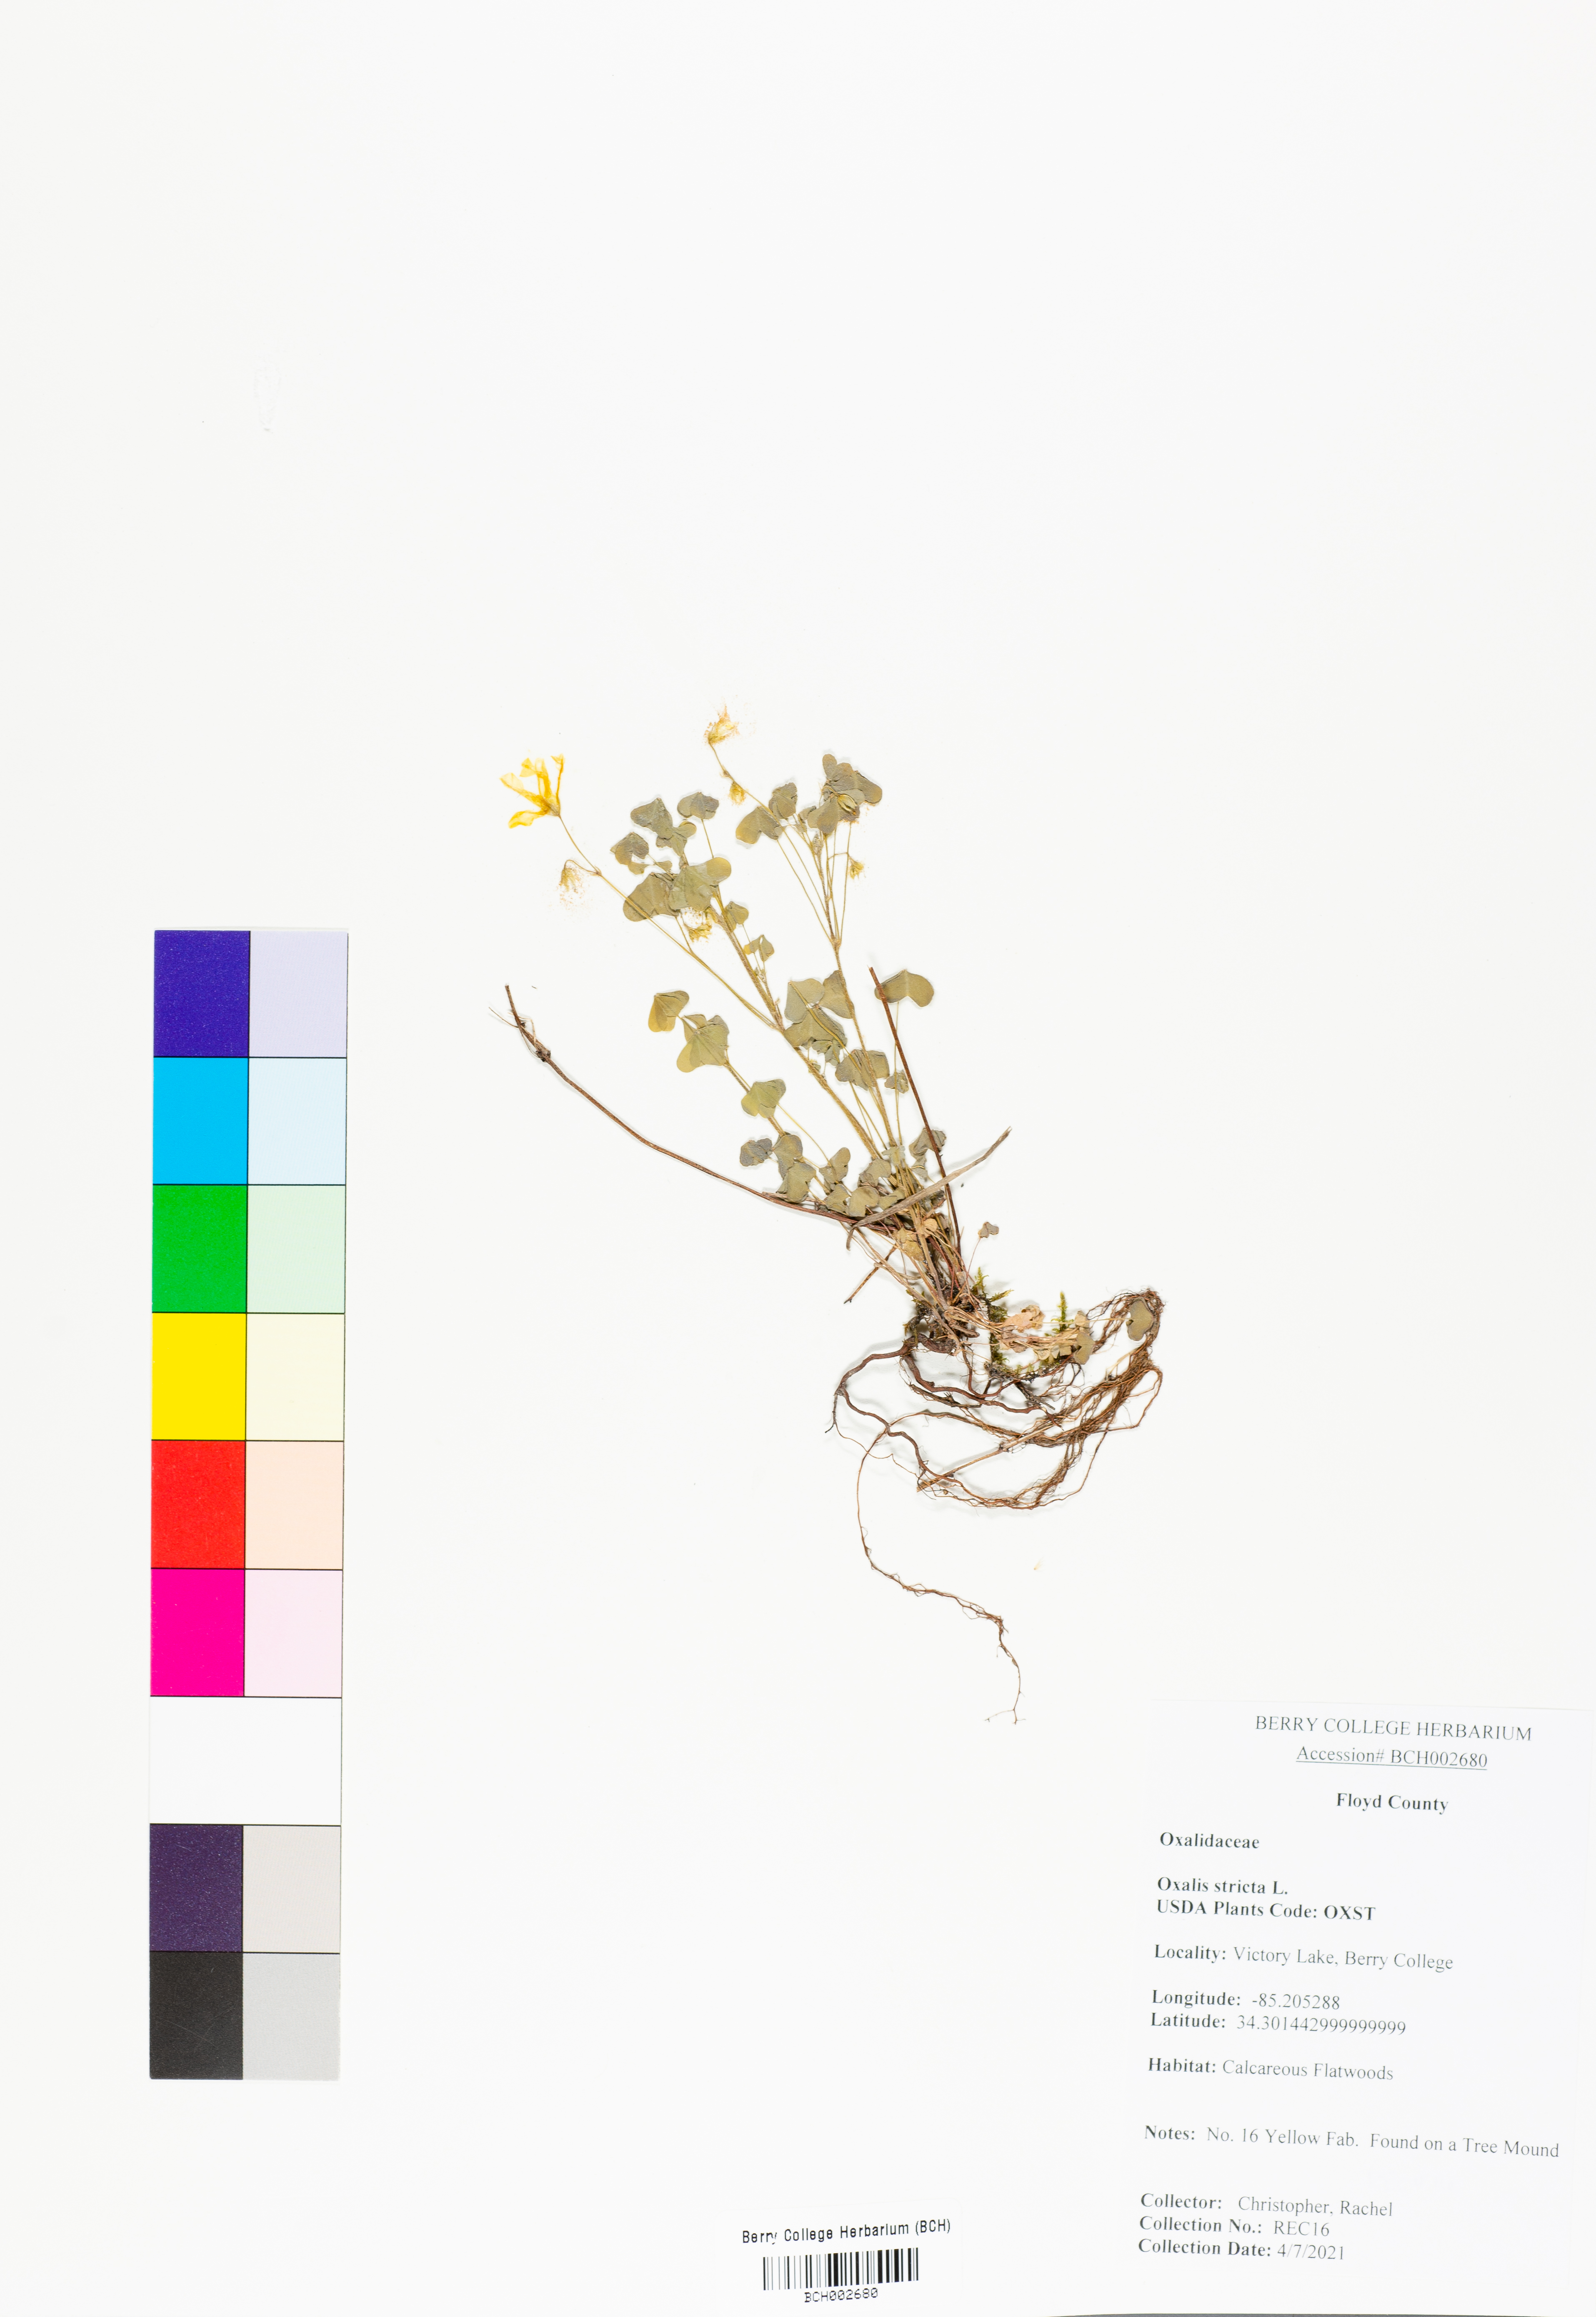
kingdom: Plantae
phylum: Tracheophyta
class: Magnoliopsida
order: Oxalidales
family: Oxalidaceae
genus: Oxalis
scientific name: Oxalis stricta
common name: Upright yellow-sorrel
